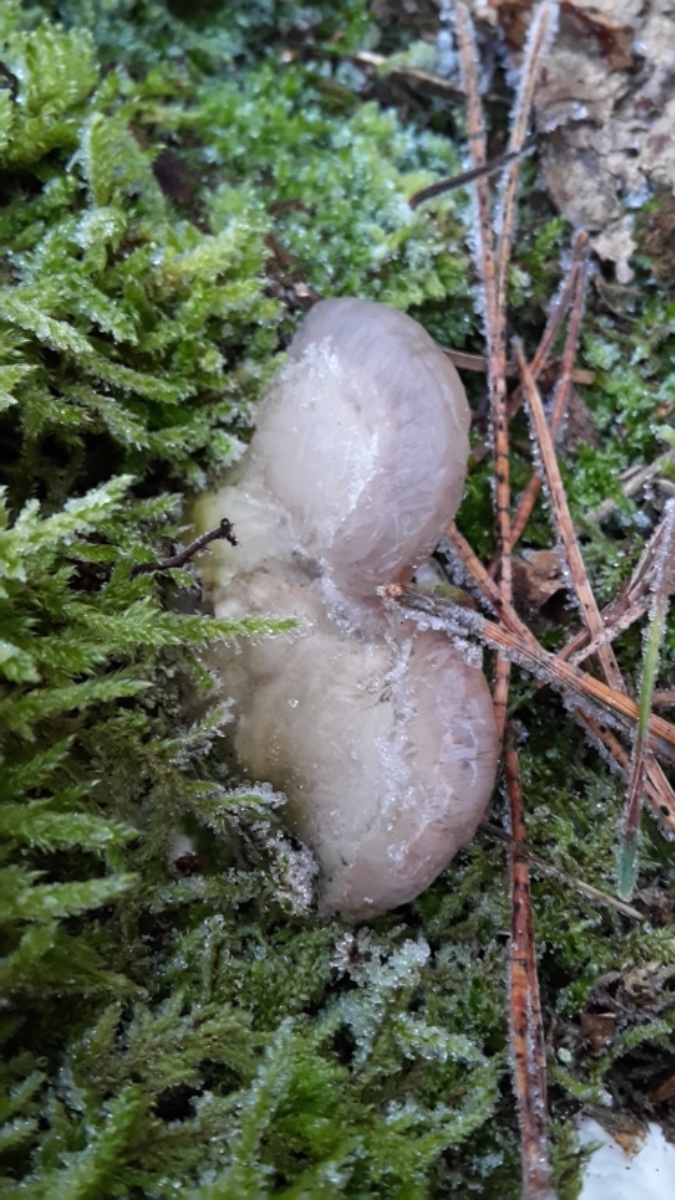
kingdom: Fungi
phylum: Basidiomycota
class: Agaricomycetes
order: Polyporales
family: Polyporaceae
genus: Trametes
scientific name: Trametes gibbosa
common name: puklet læderporesvamp
